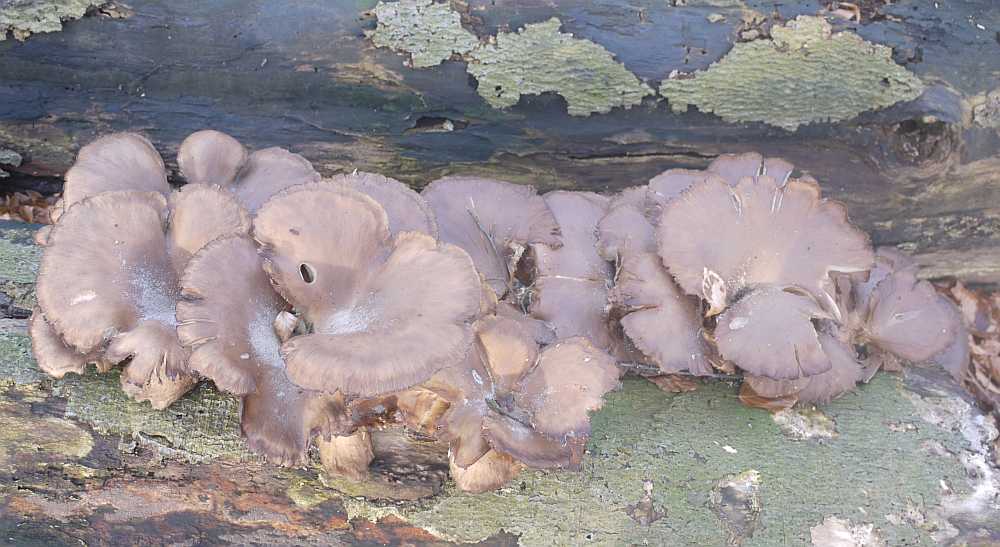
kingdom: Fungi
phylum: Basidiomycota
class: Agaricomycetes
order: Agaricales
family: Pleurotaceae
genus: Pleurotus
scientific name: Pleurotus ostreatus
